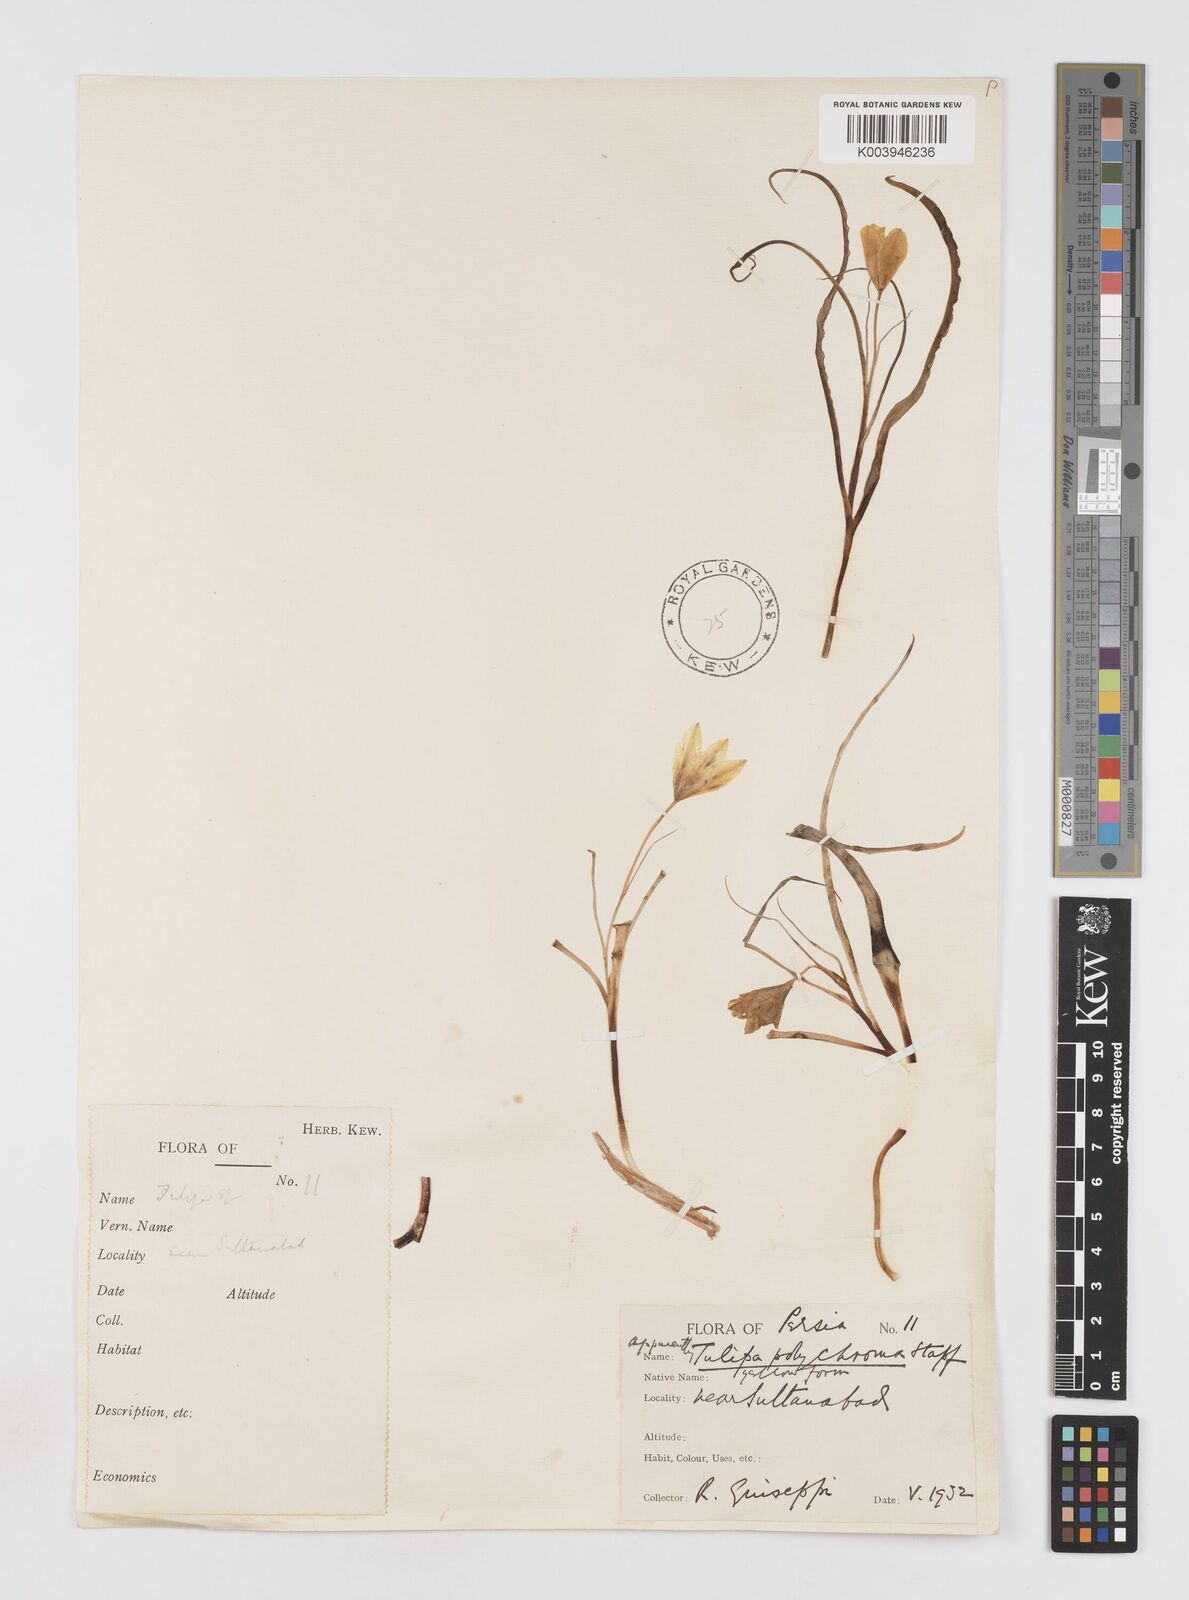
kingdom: Plantae
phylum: Tracheophyta
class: Liliopsida
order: Liliales
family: Liliaceae
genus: Tulipa
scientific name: Tulipa montana
